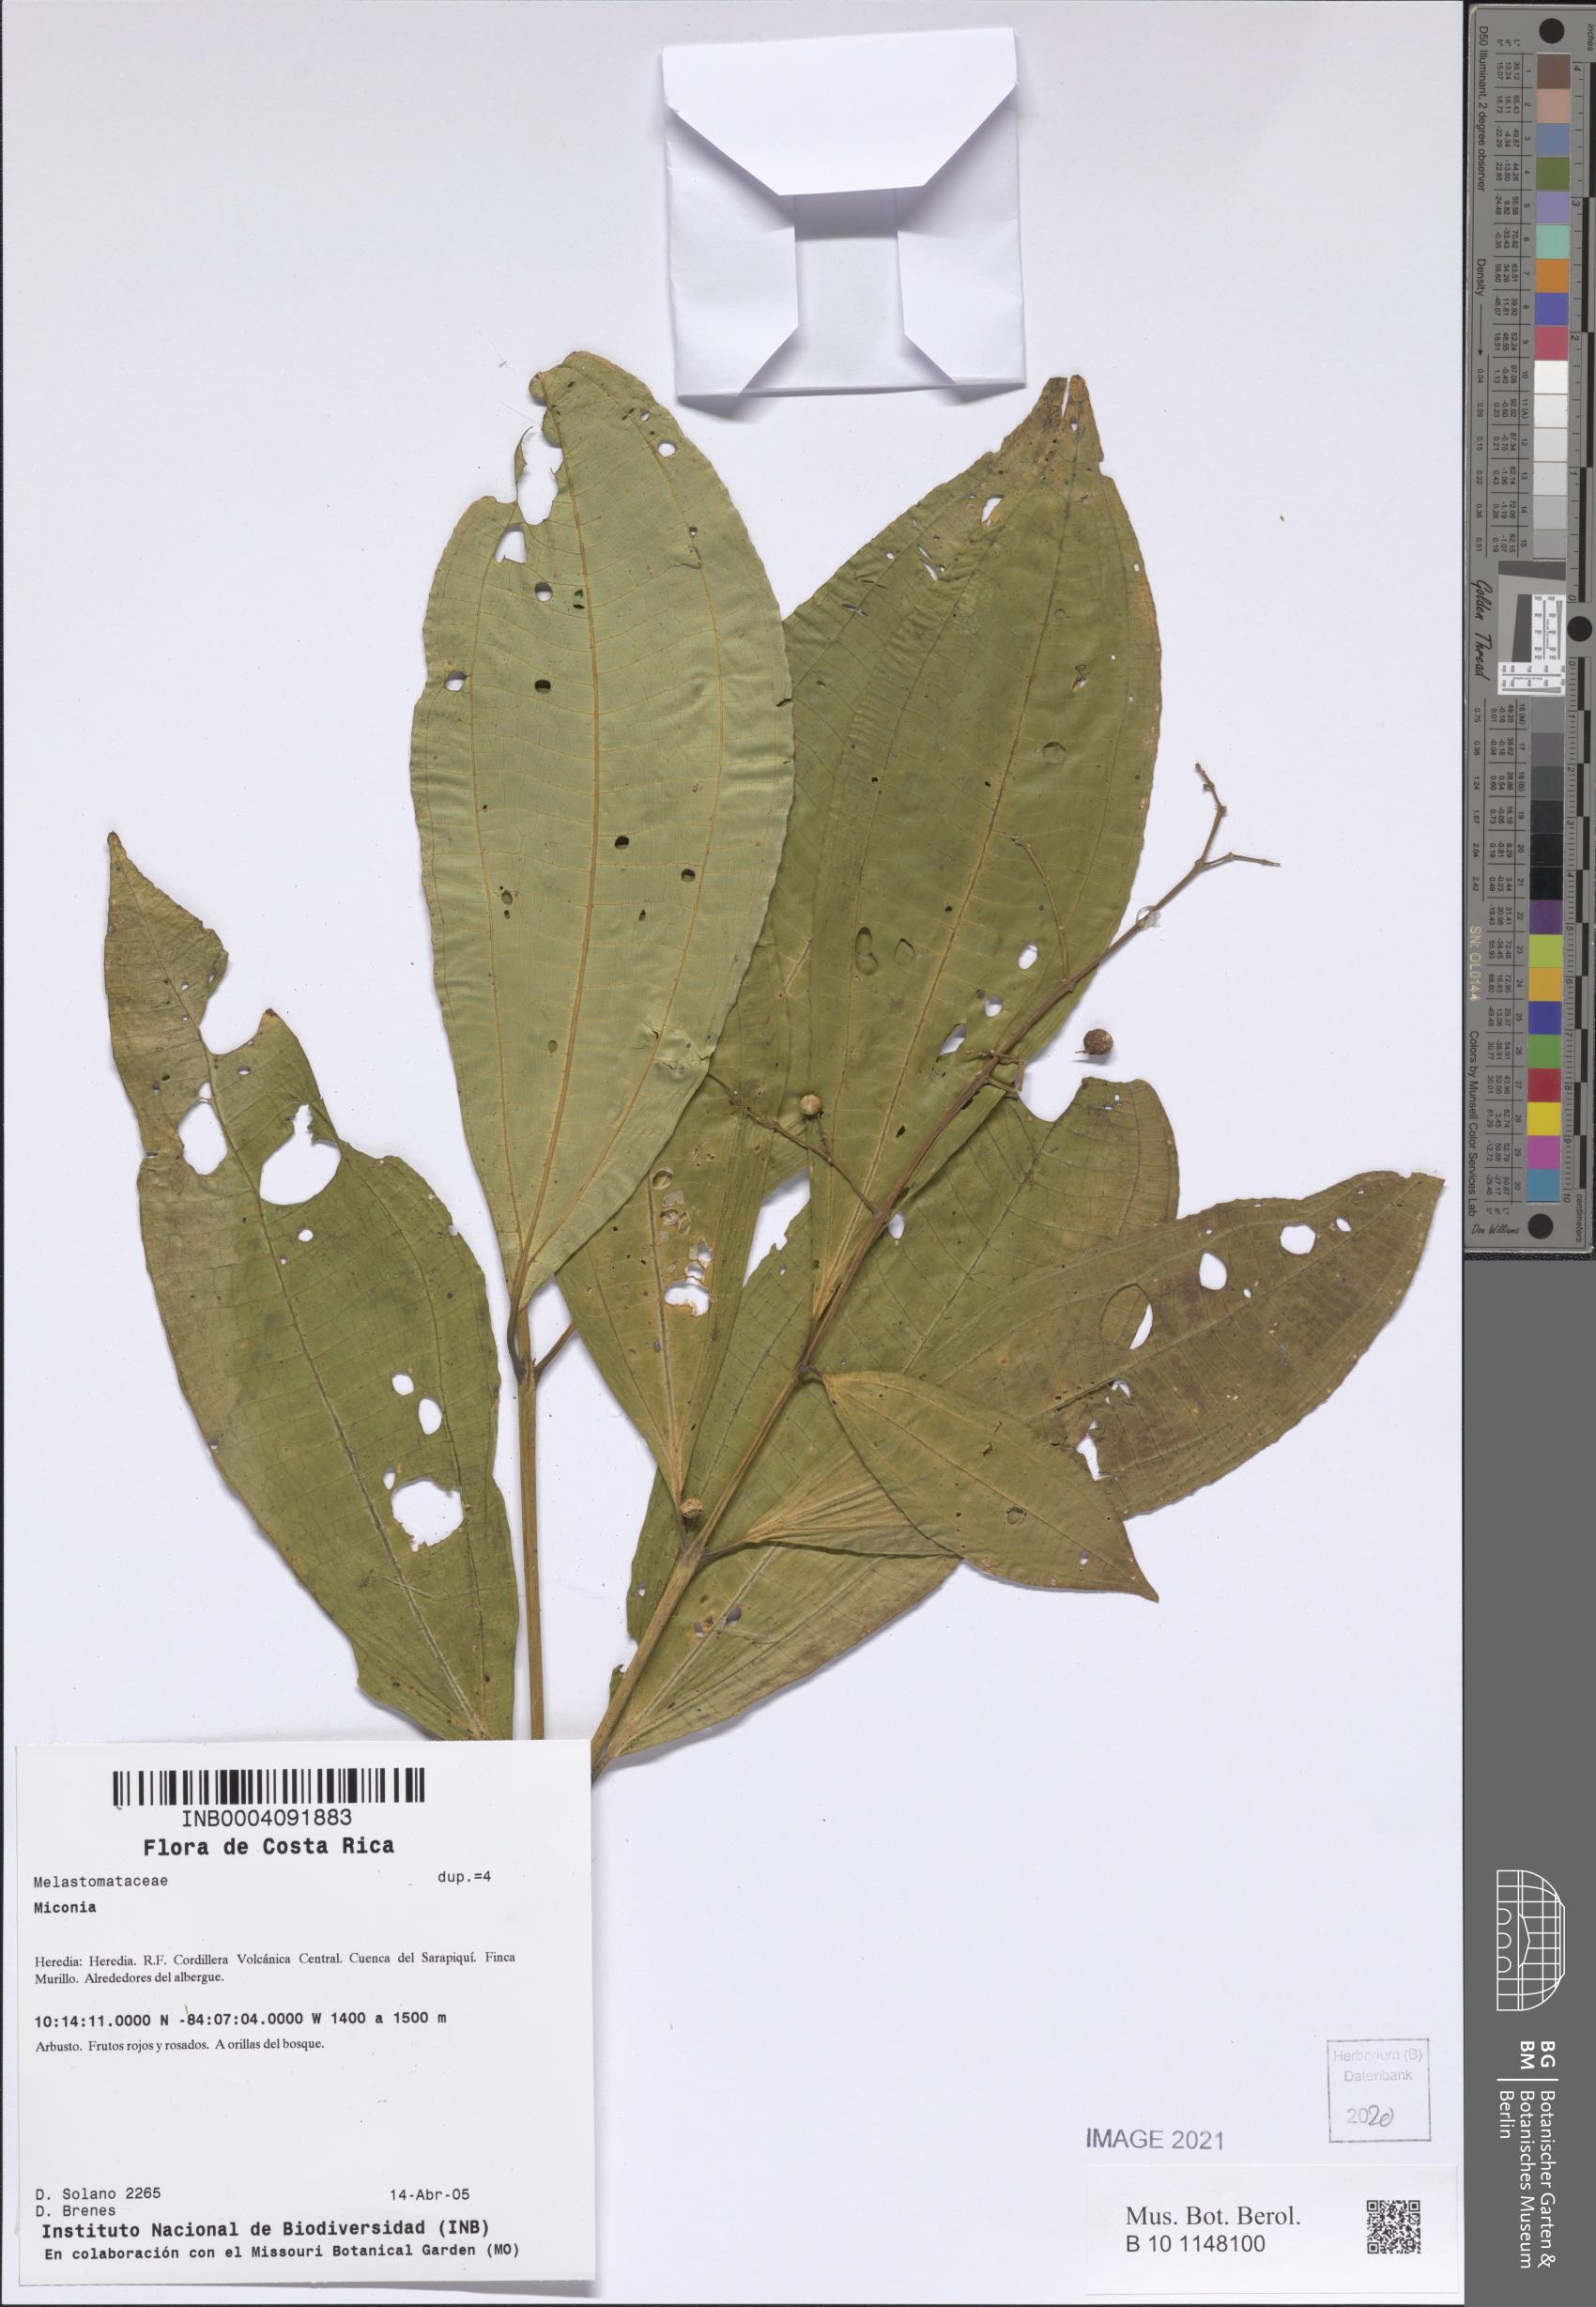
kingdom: Plantae
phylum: Tracheophyta
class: Magnoliopsida
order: Myrtales
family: Melastomataceae
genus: Miconia
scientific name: Miconia
